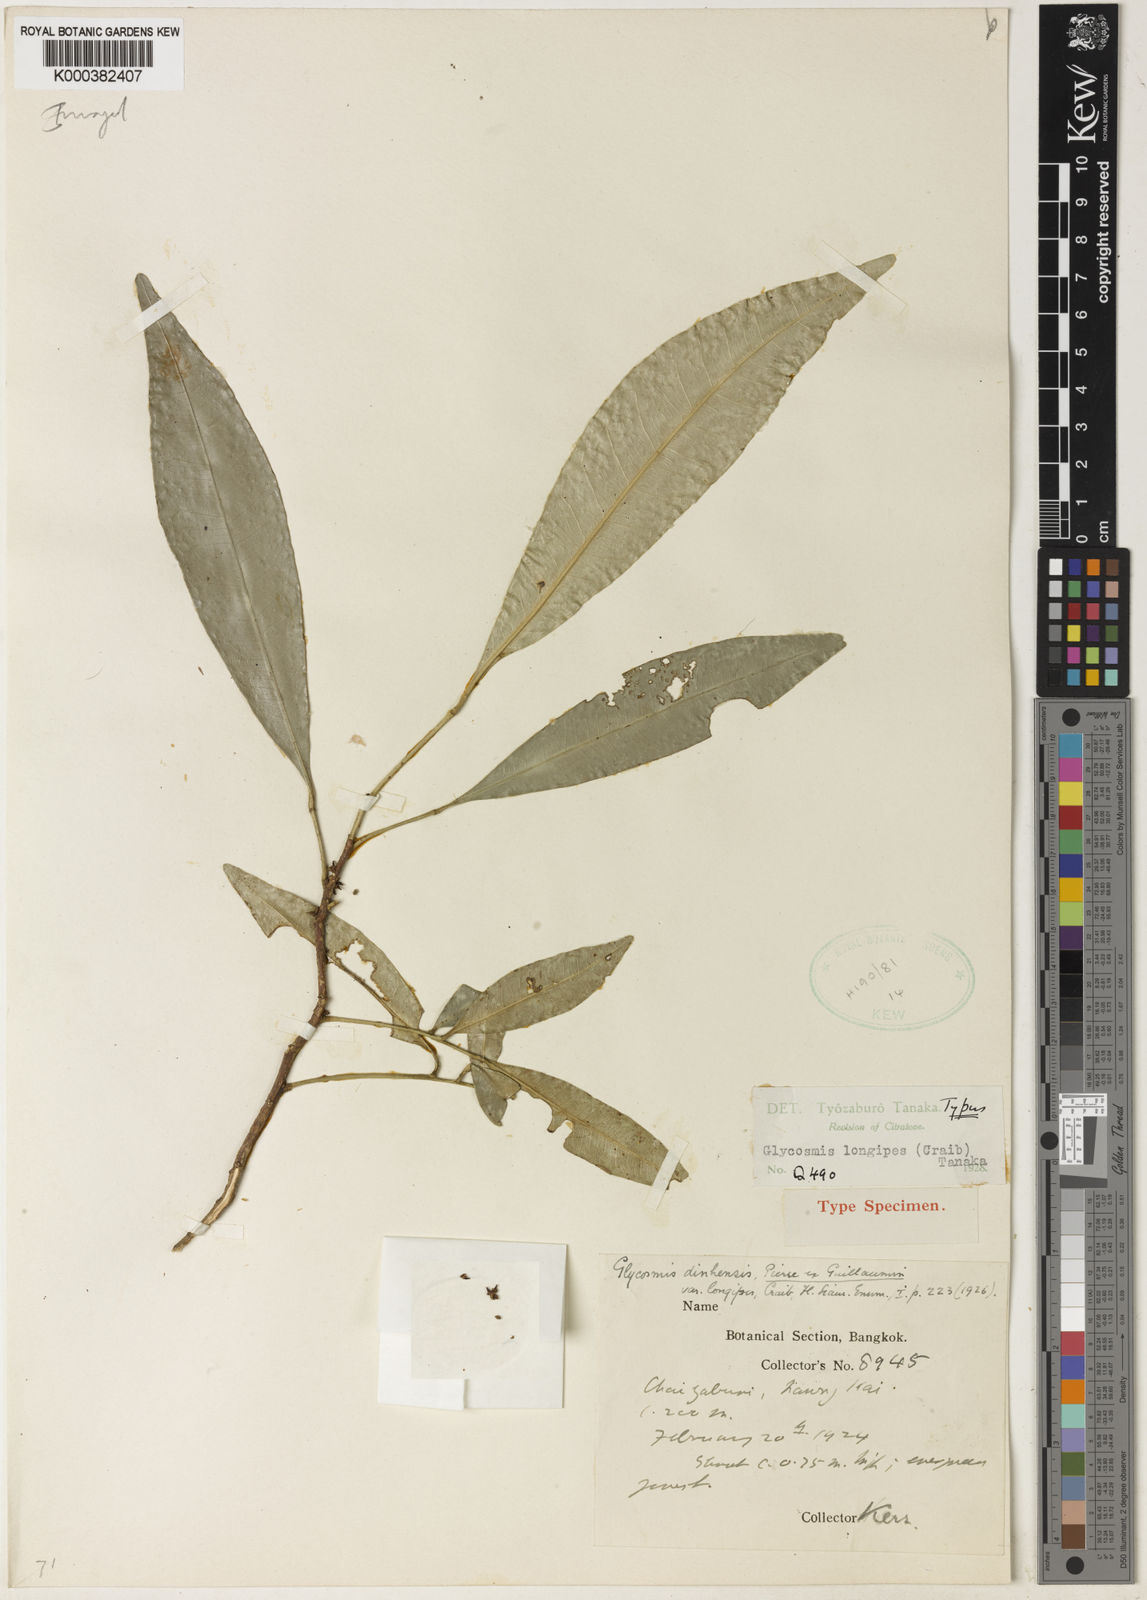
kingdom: Plantae
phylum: Tracheophyta
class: Magnoliopsida
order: Sapindales
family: Rutaceae
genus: Glycosmis
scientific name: Glycosmis longipes
